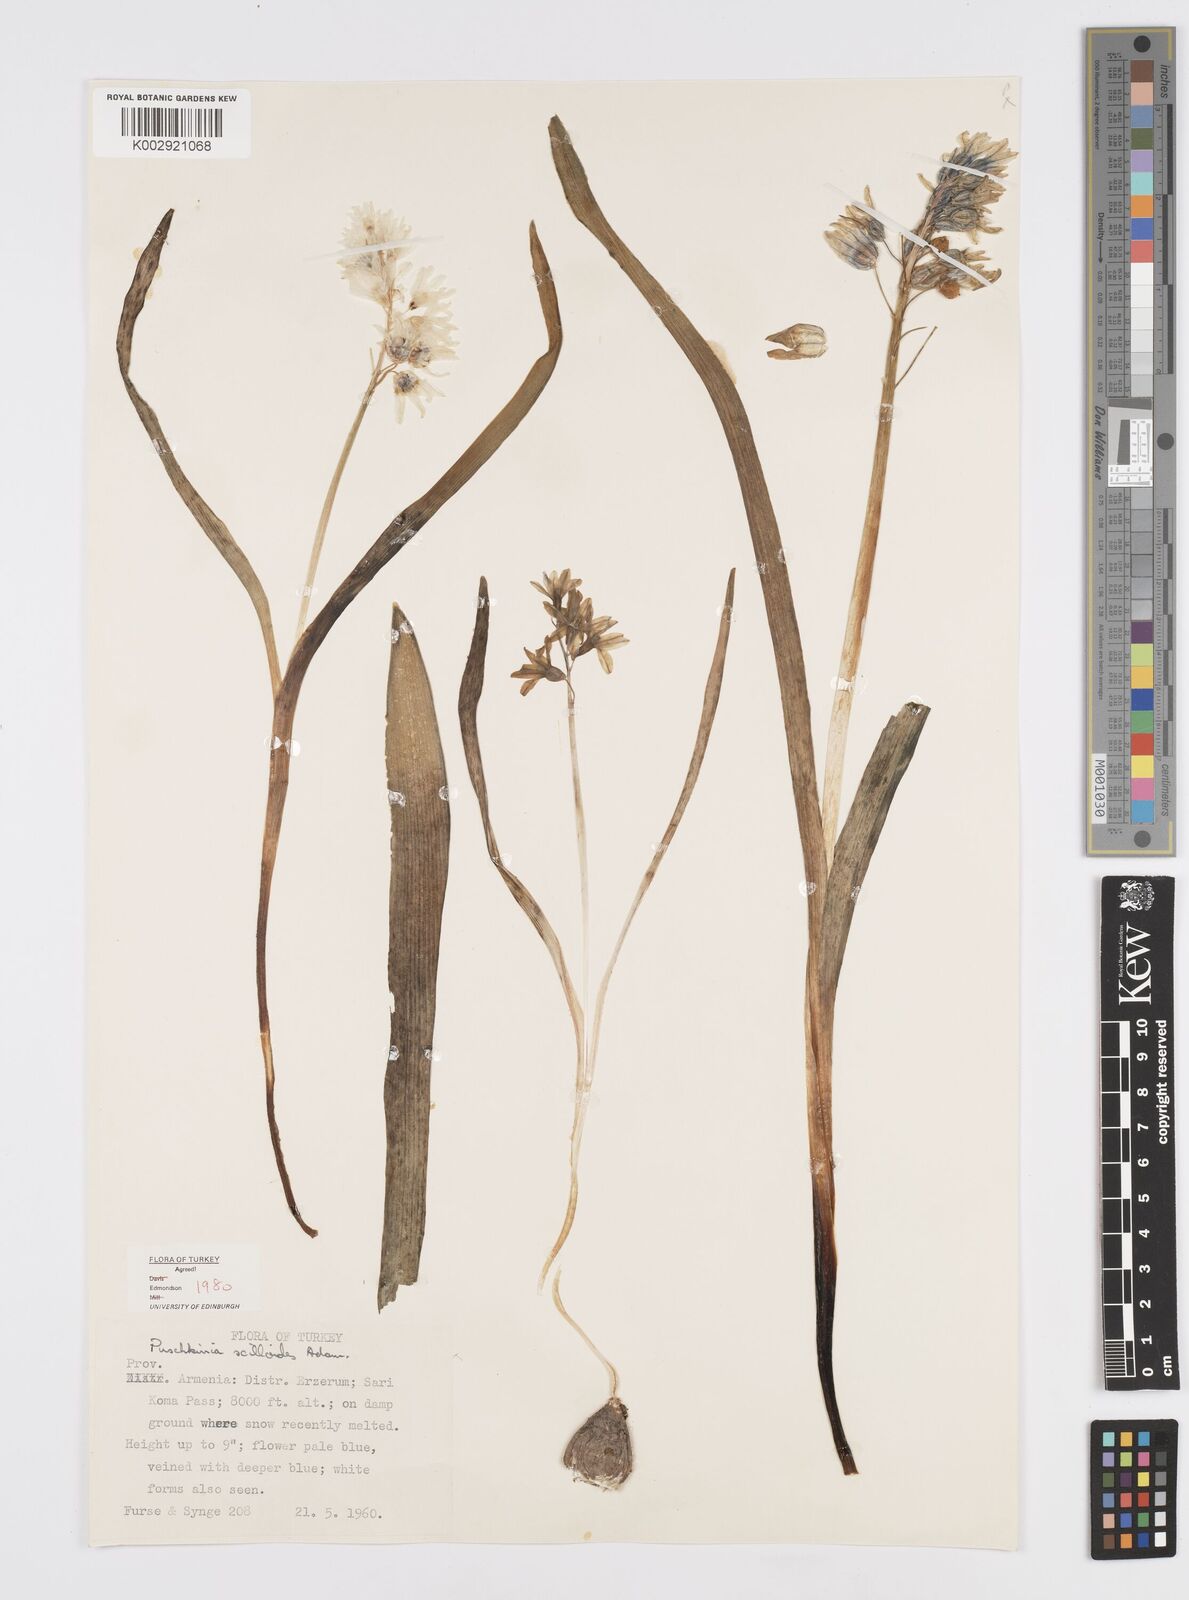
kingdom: Plantae
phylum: Tracheophyta
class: Liliopsida
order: Asparagales
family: Asparagaceae
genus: Puschkinia
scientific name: Puschkinia scilloides
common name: Striped squill
